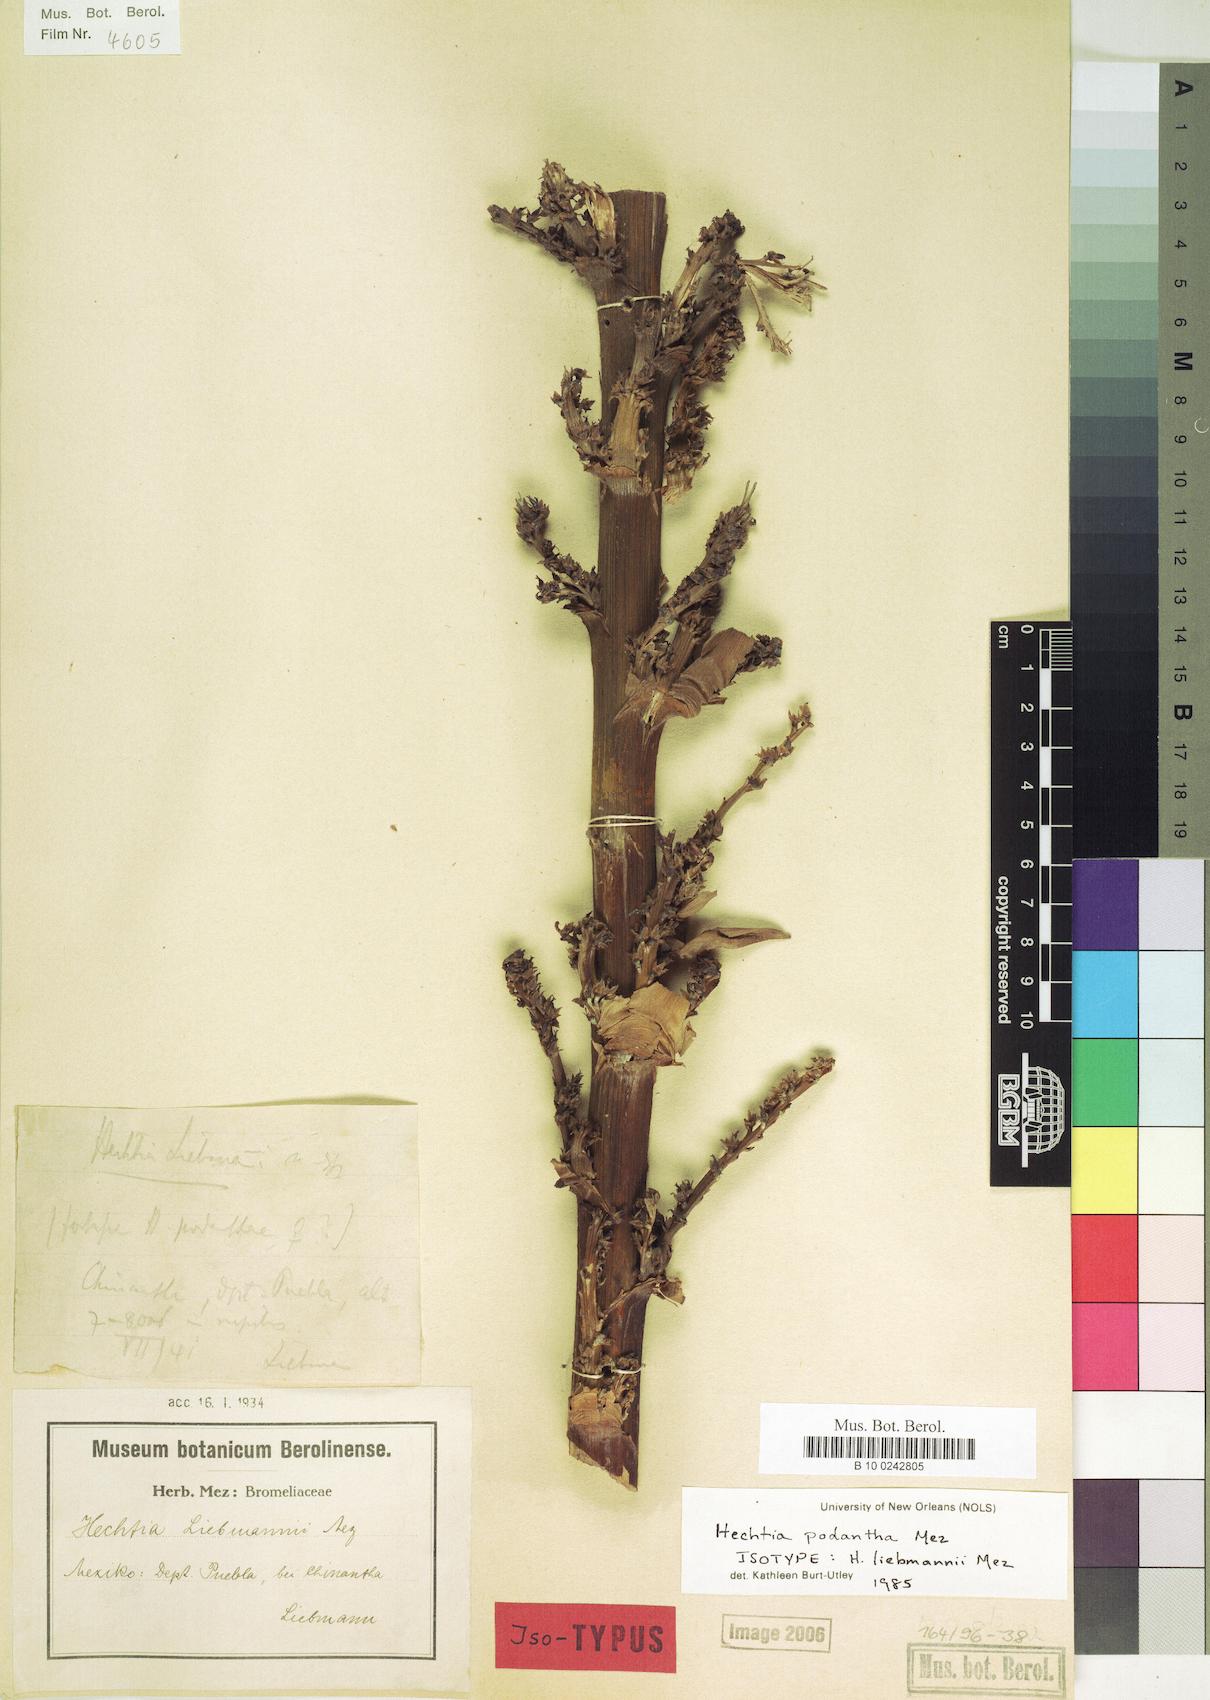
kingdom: Plantae
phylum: Tracheophyta
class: Liliopsida
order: Poales
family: Bromeliaceae
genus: Hechtia
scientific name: Hechtia podantha
